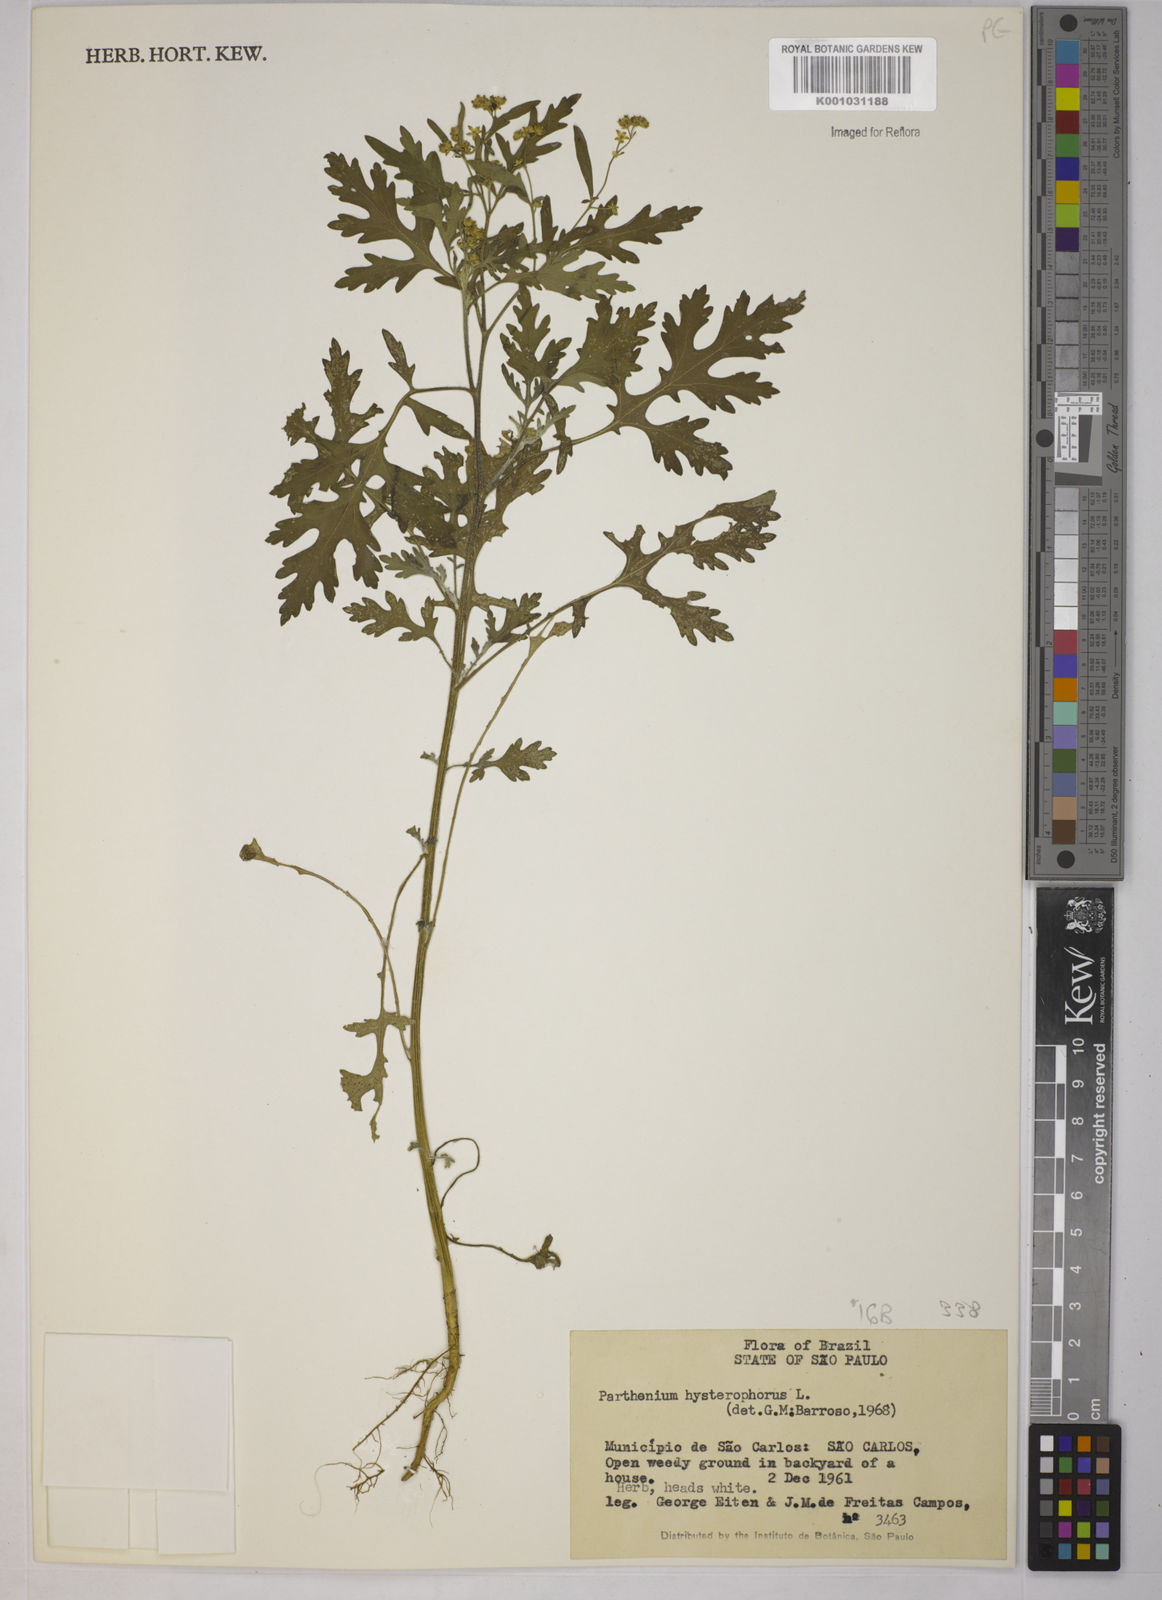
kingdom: Plantae
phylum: Tracheophyta
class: Magnoliopsida
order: Asterales
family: Asteraceae
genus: Parthenium
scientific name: Parthenium hysterophorus
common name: Santa maria feverfew
